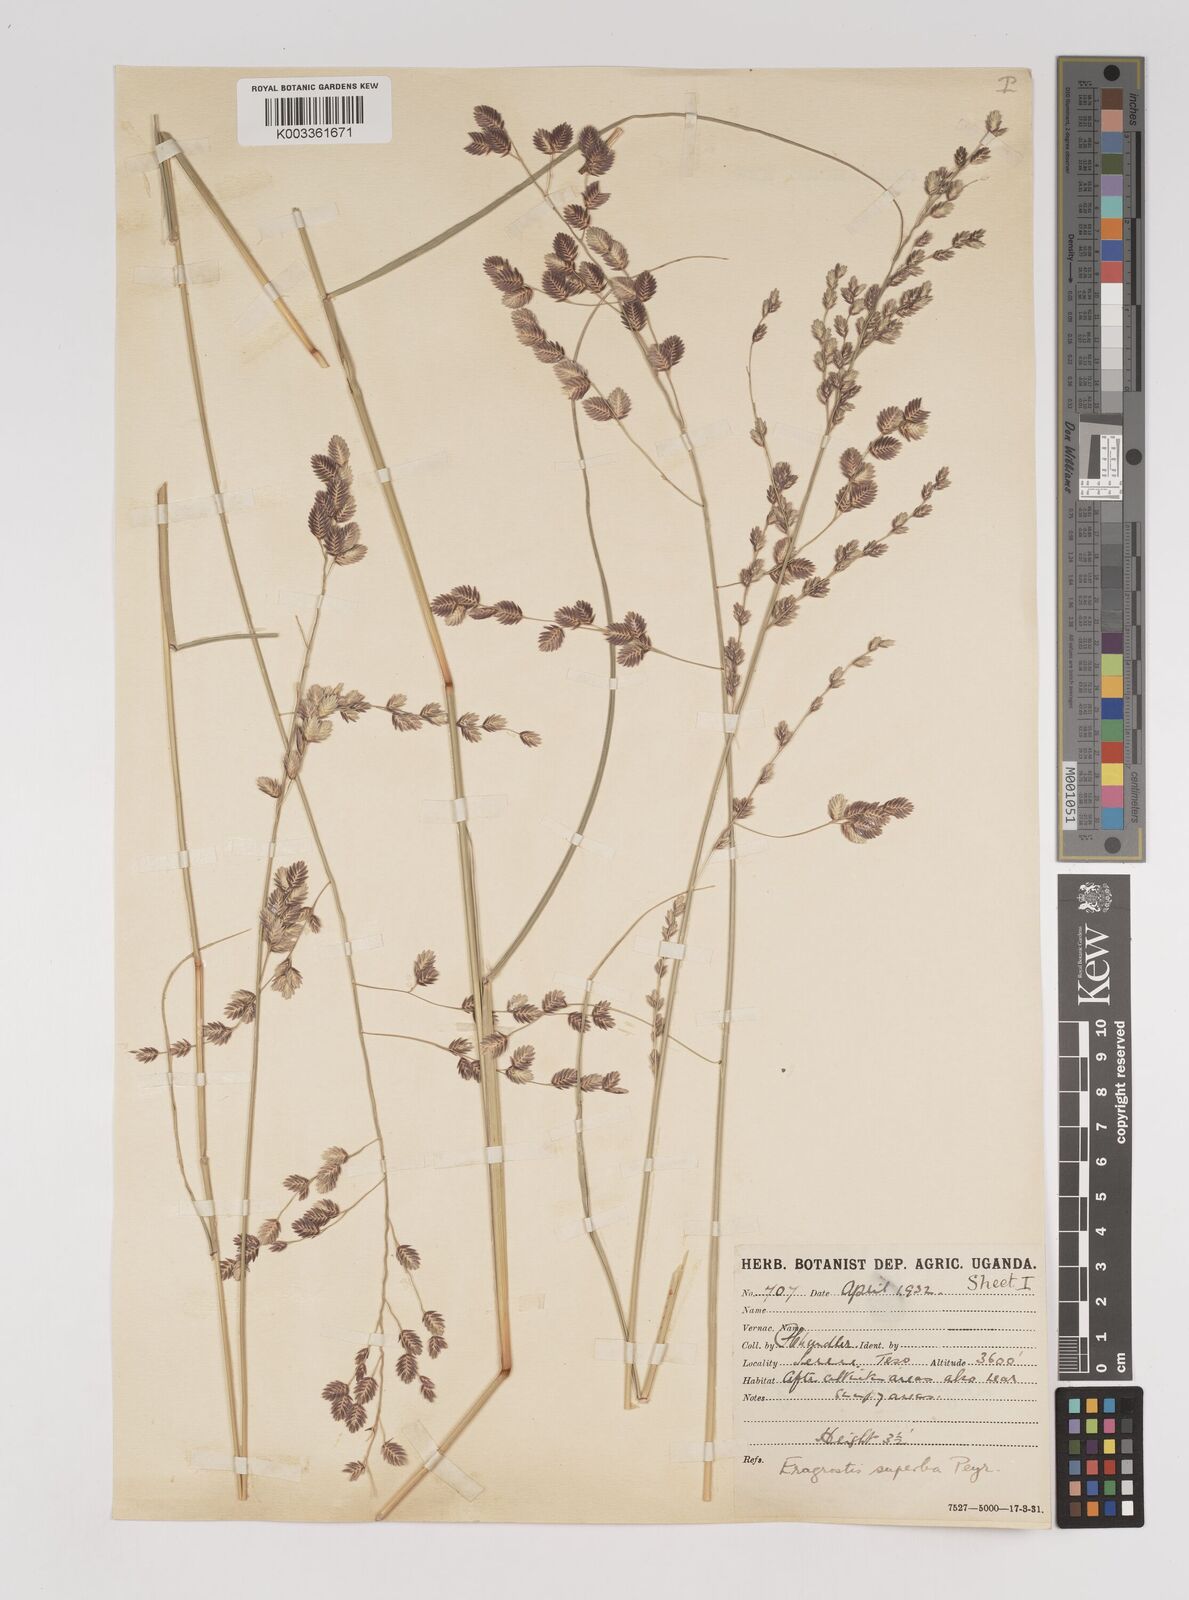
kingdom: Plantae
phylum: Tracheophyta
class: Liliopsida
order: Poales
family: Poaceae
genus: Eragrostis
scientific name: Eragrostis superba
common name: Wilman lovegrass
